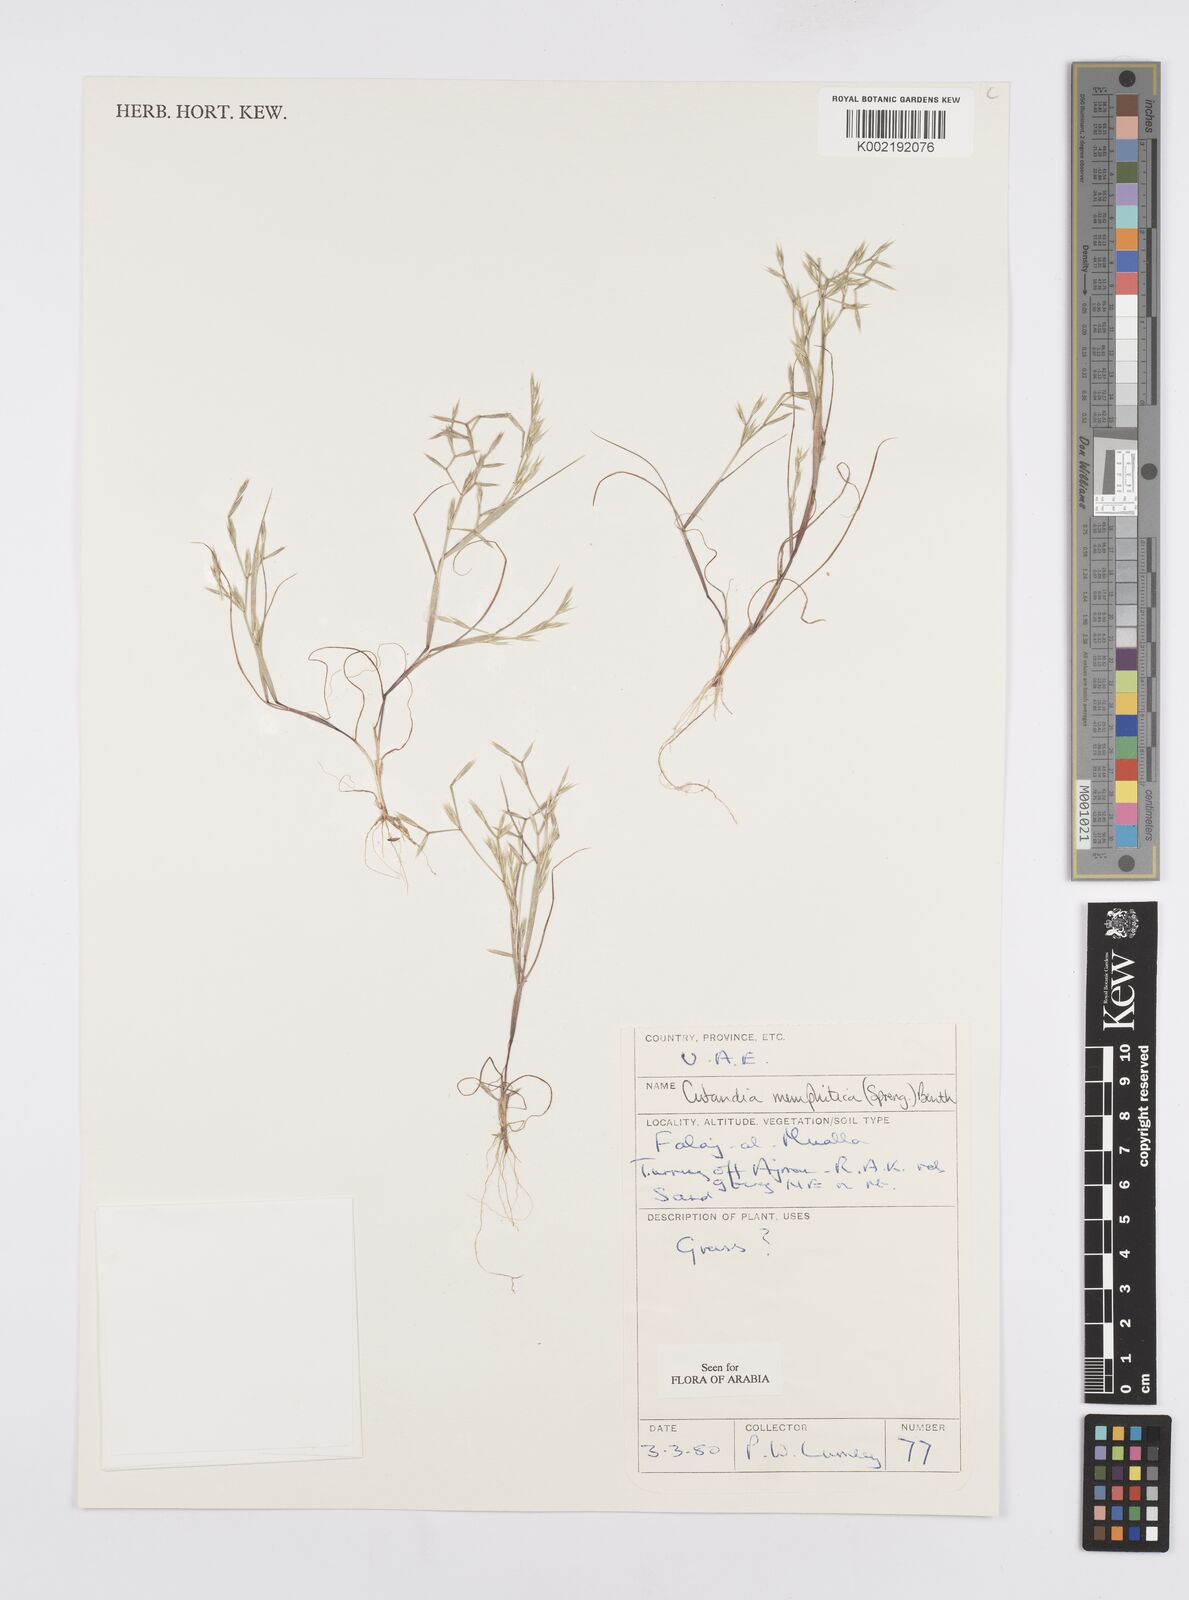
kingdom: Plantae
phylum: Tracheophyta
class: Liliopsida
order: Poales
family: Poaceae
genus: Cutandia
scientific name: Cutandia memphitica
